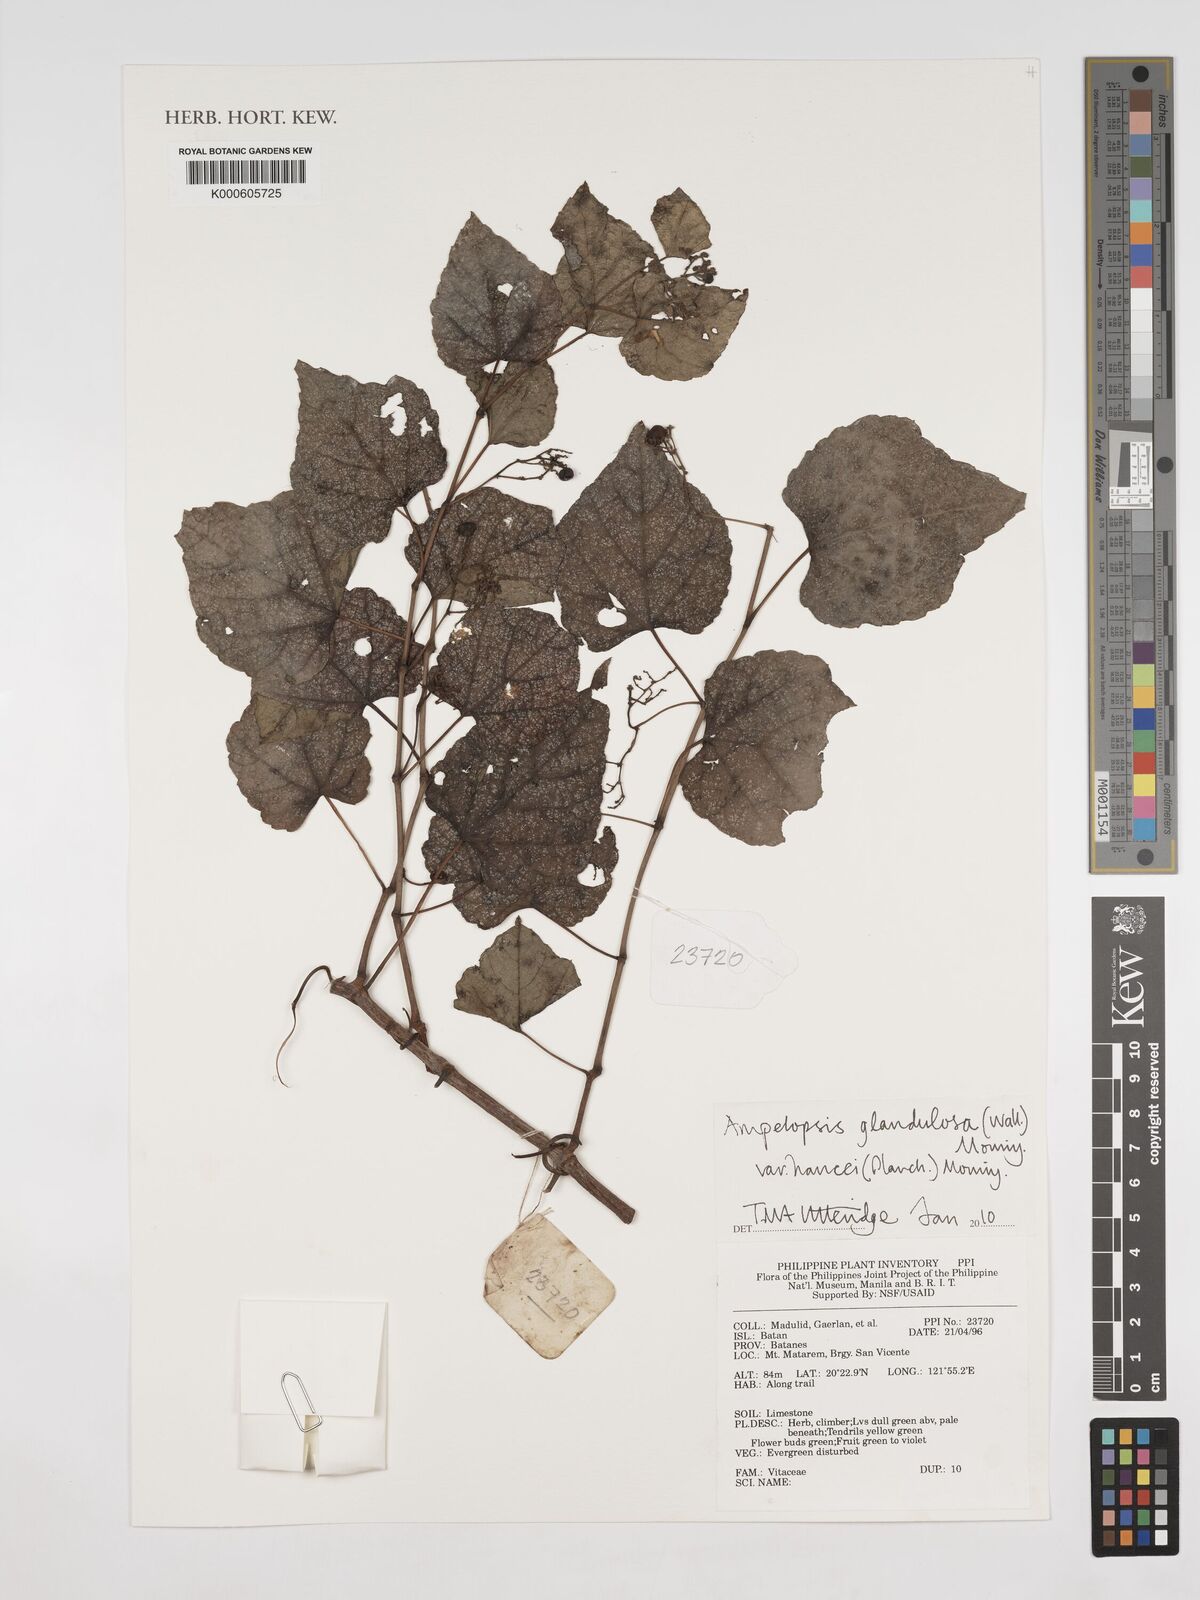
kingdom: Plantae
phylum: Tracheophyta
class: Magnoliopsida
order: Vitales
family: Vitaceae
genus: Ampelopsis
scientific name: Ampelopsis glandulosa
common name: Amur peppervine
